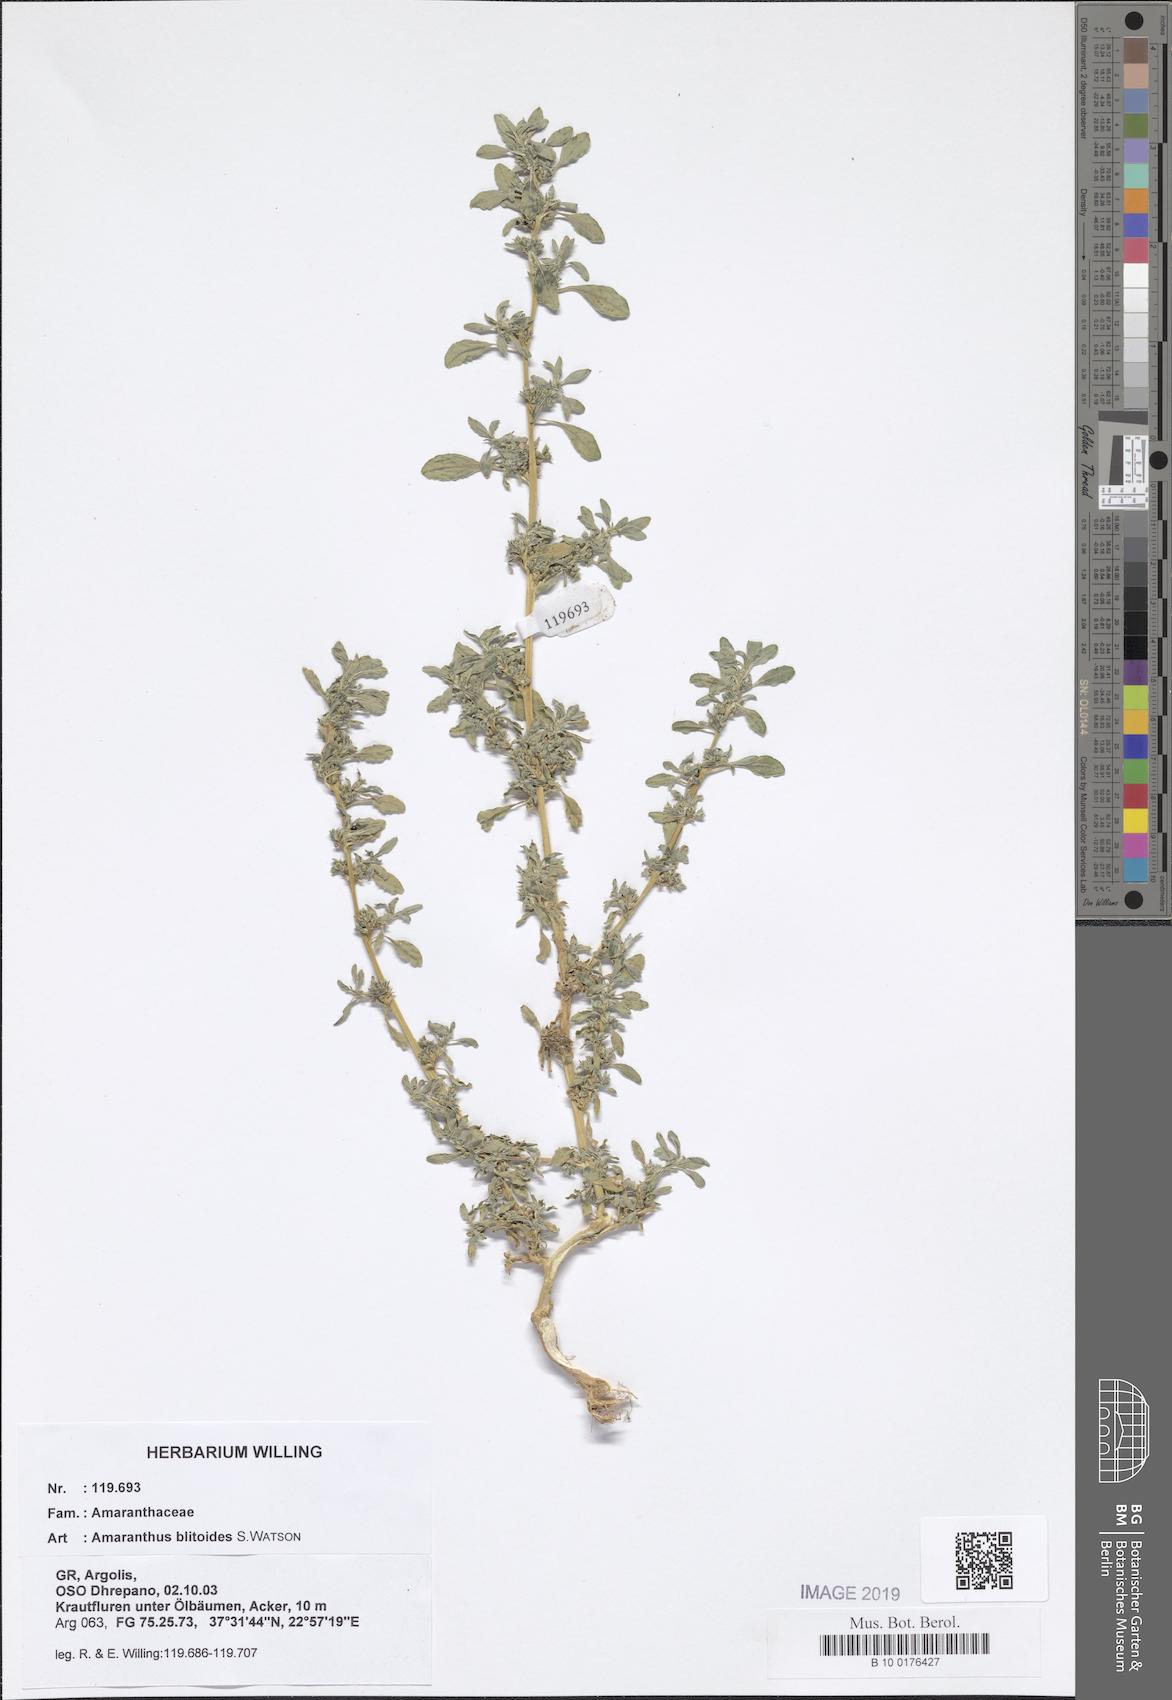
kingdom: Plantae
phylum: Tracheophyta
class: Magnoliopsida
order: Caryophyllales
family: Amaranthaceae
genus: Amaranthus
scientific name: Amaranthus blitoides
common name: Prostrate pigweed
